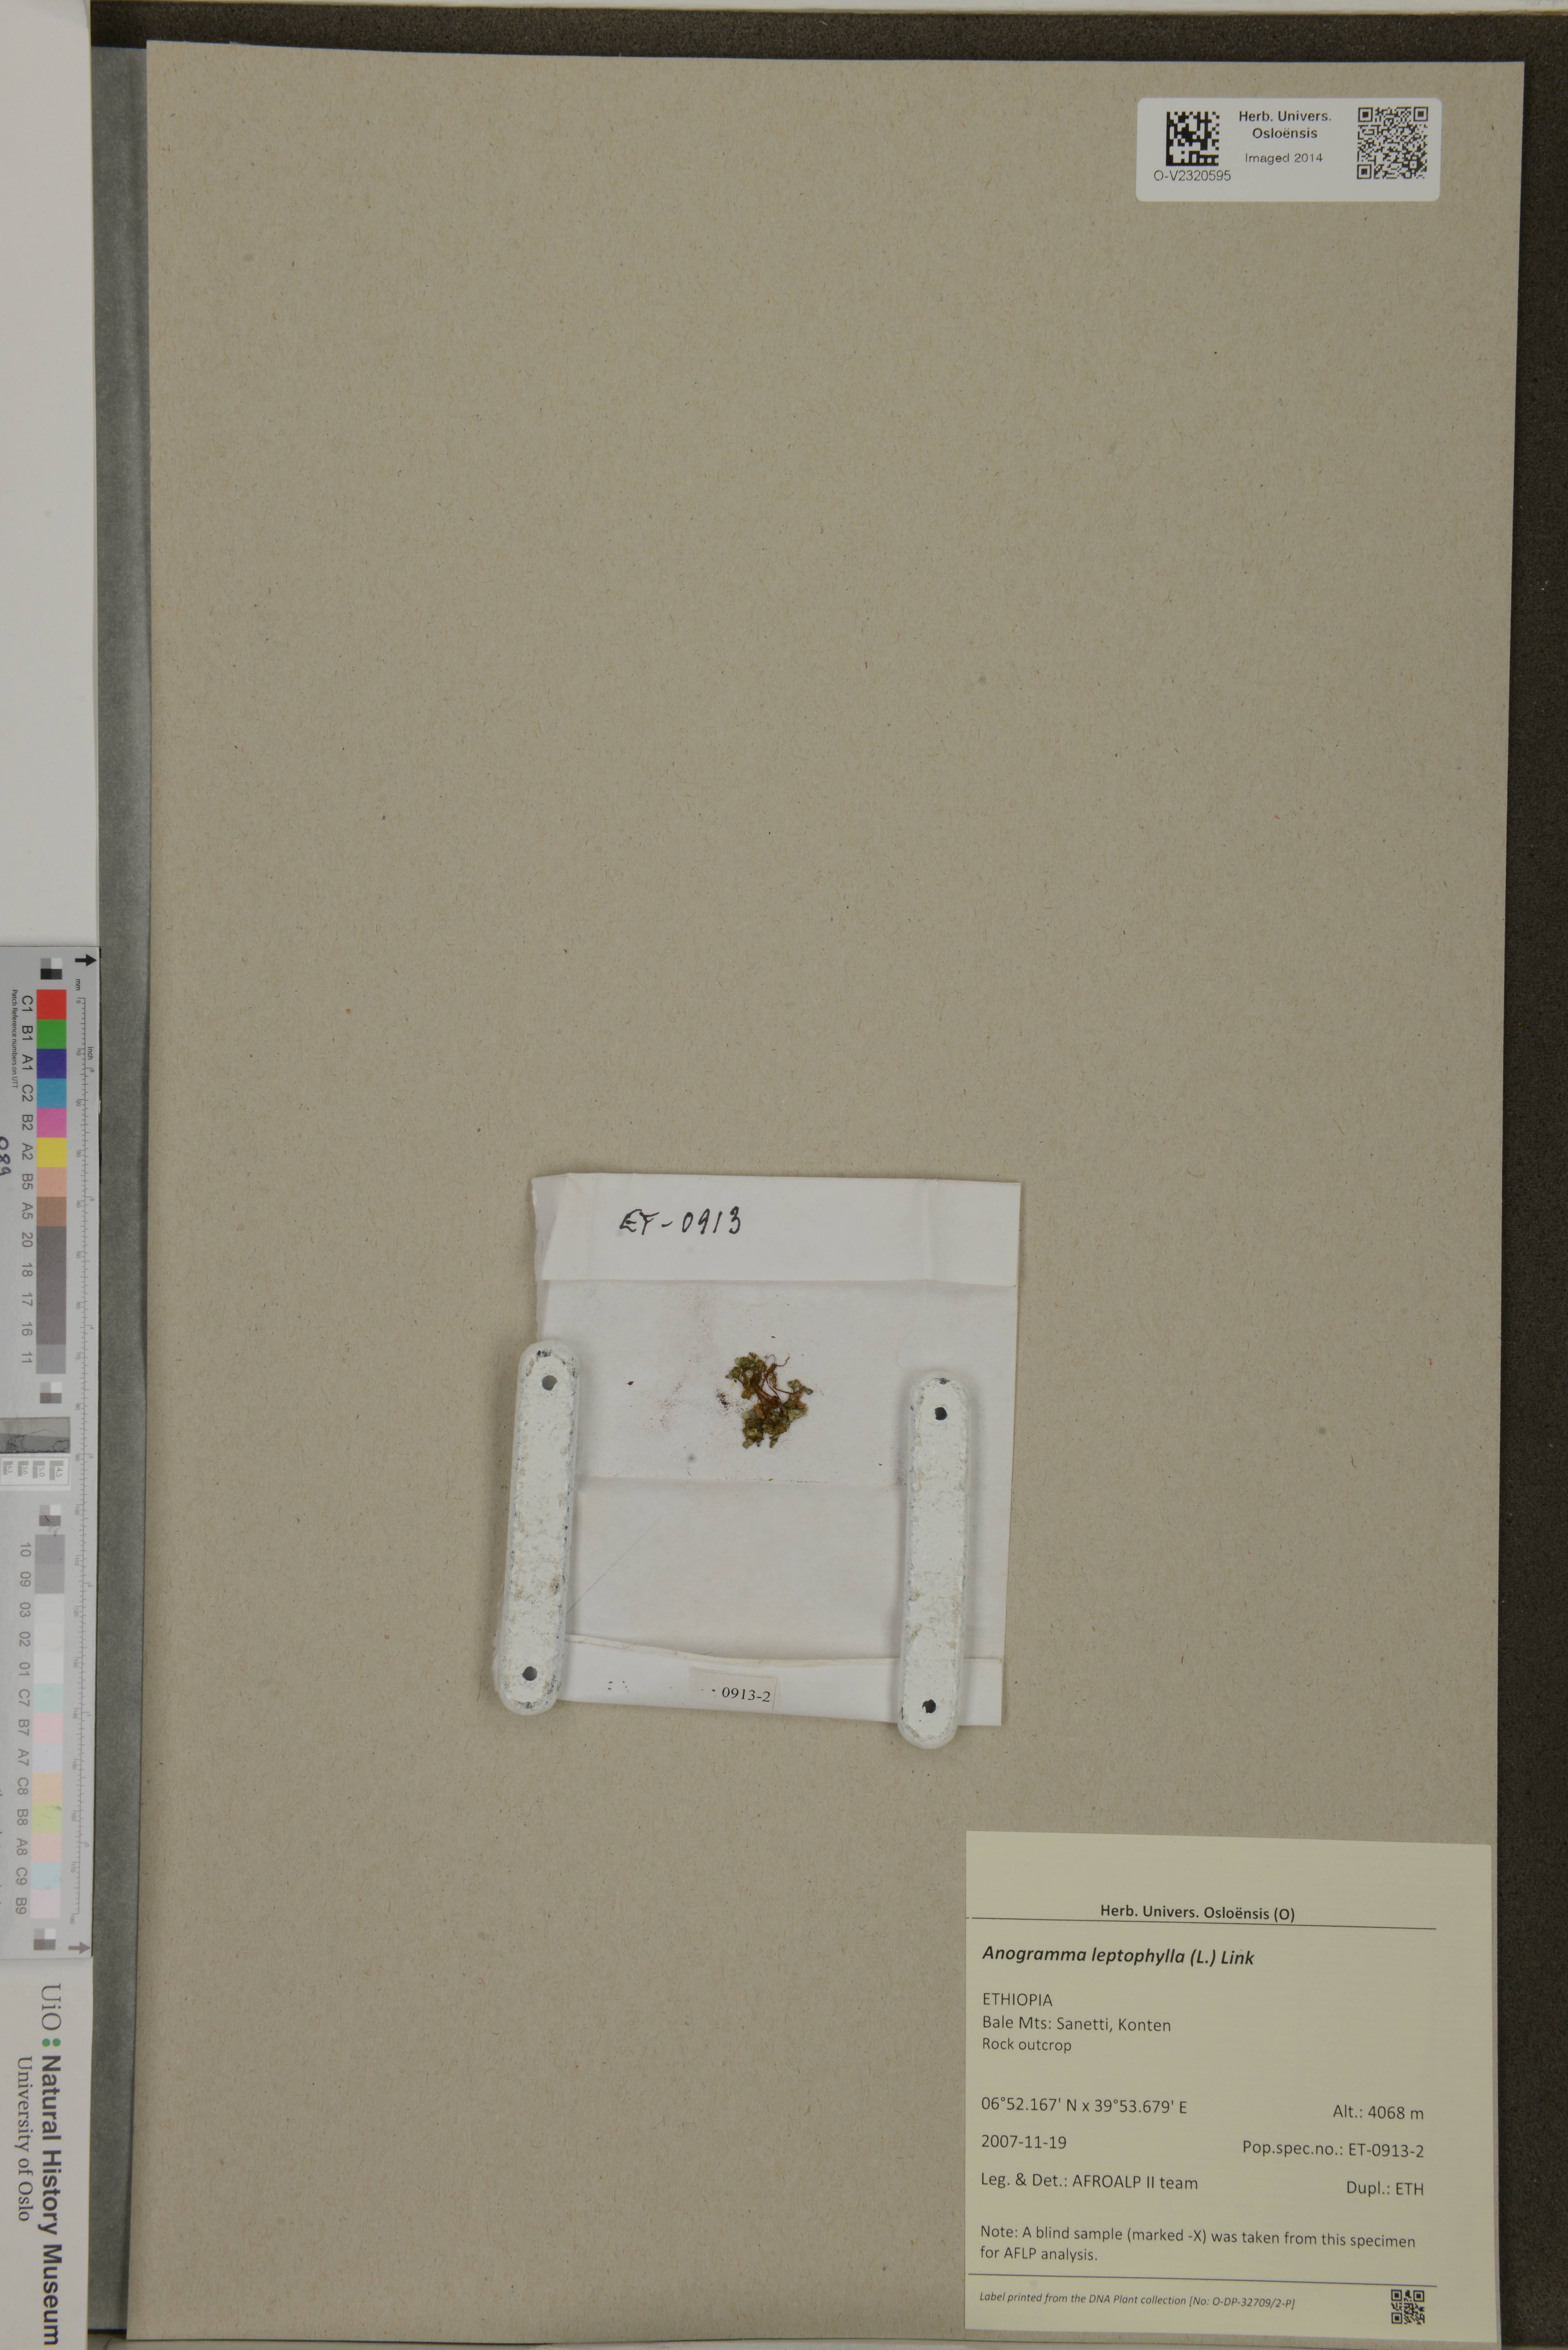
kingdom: Plantae
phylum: Tracheophyta
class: Polypodiopsida
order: Polypodiales
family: Pteridaceae
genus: Anogramma
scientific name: Anogramma leptophylla
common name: Jersey fern
